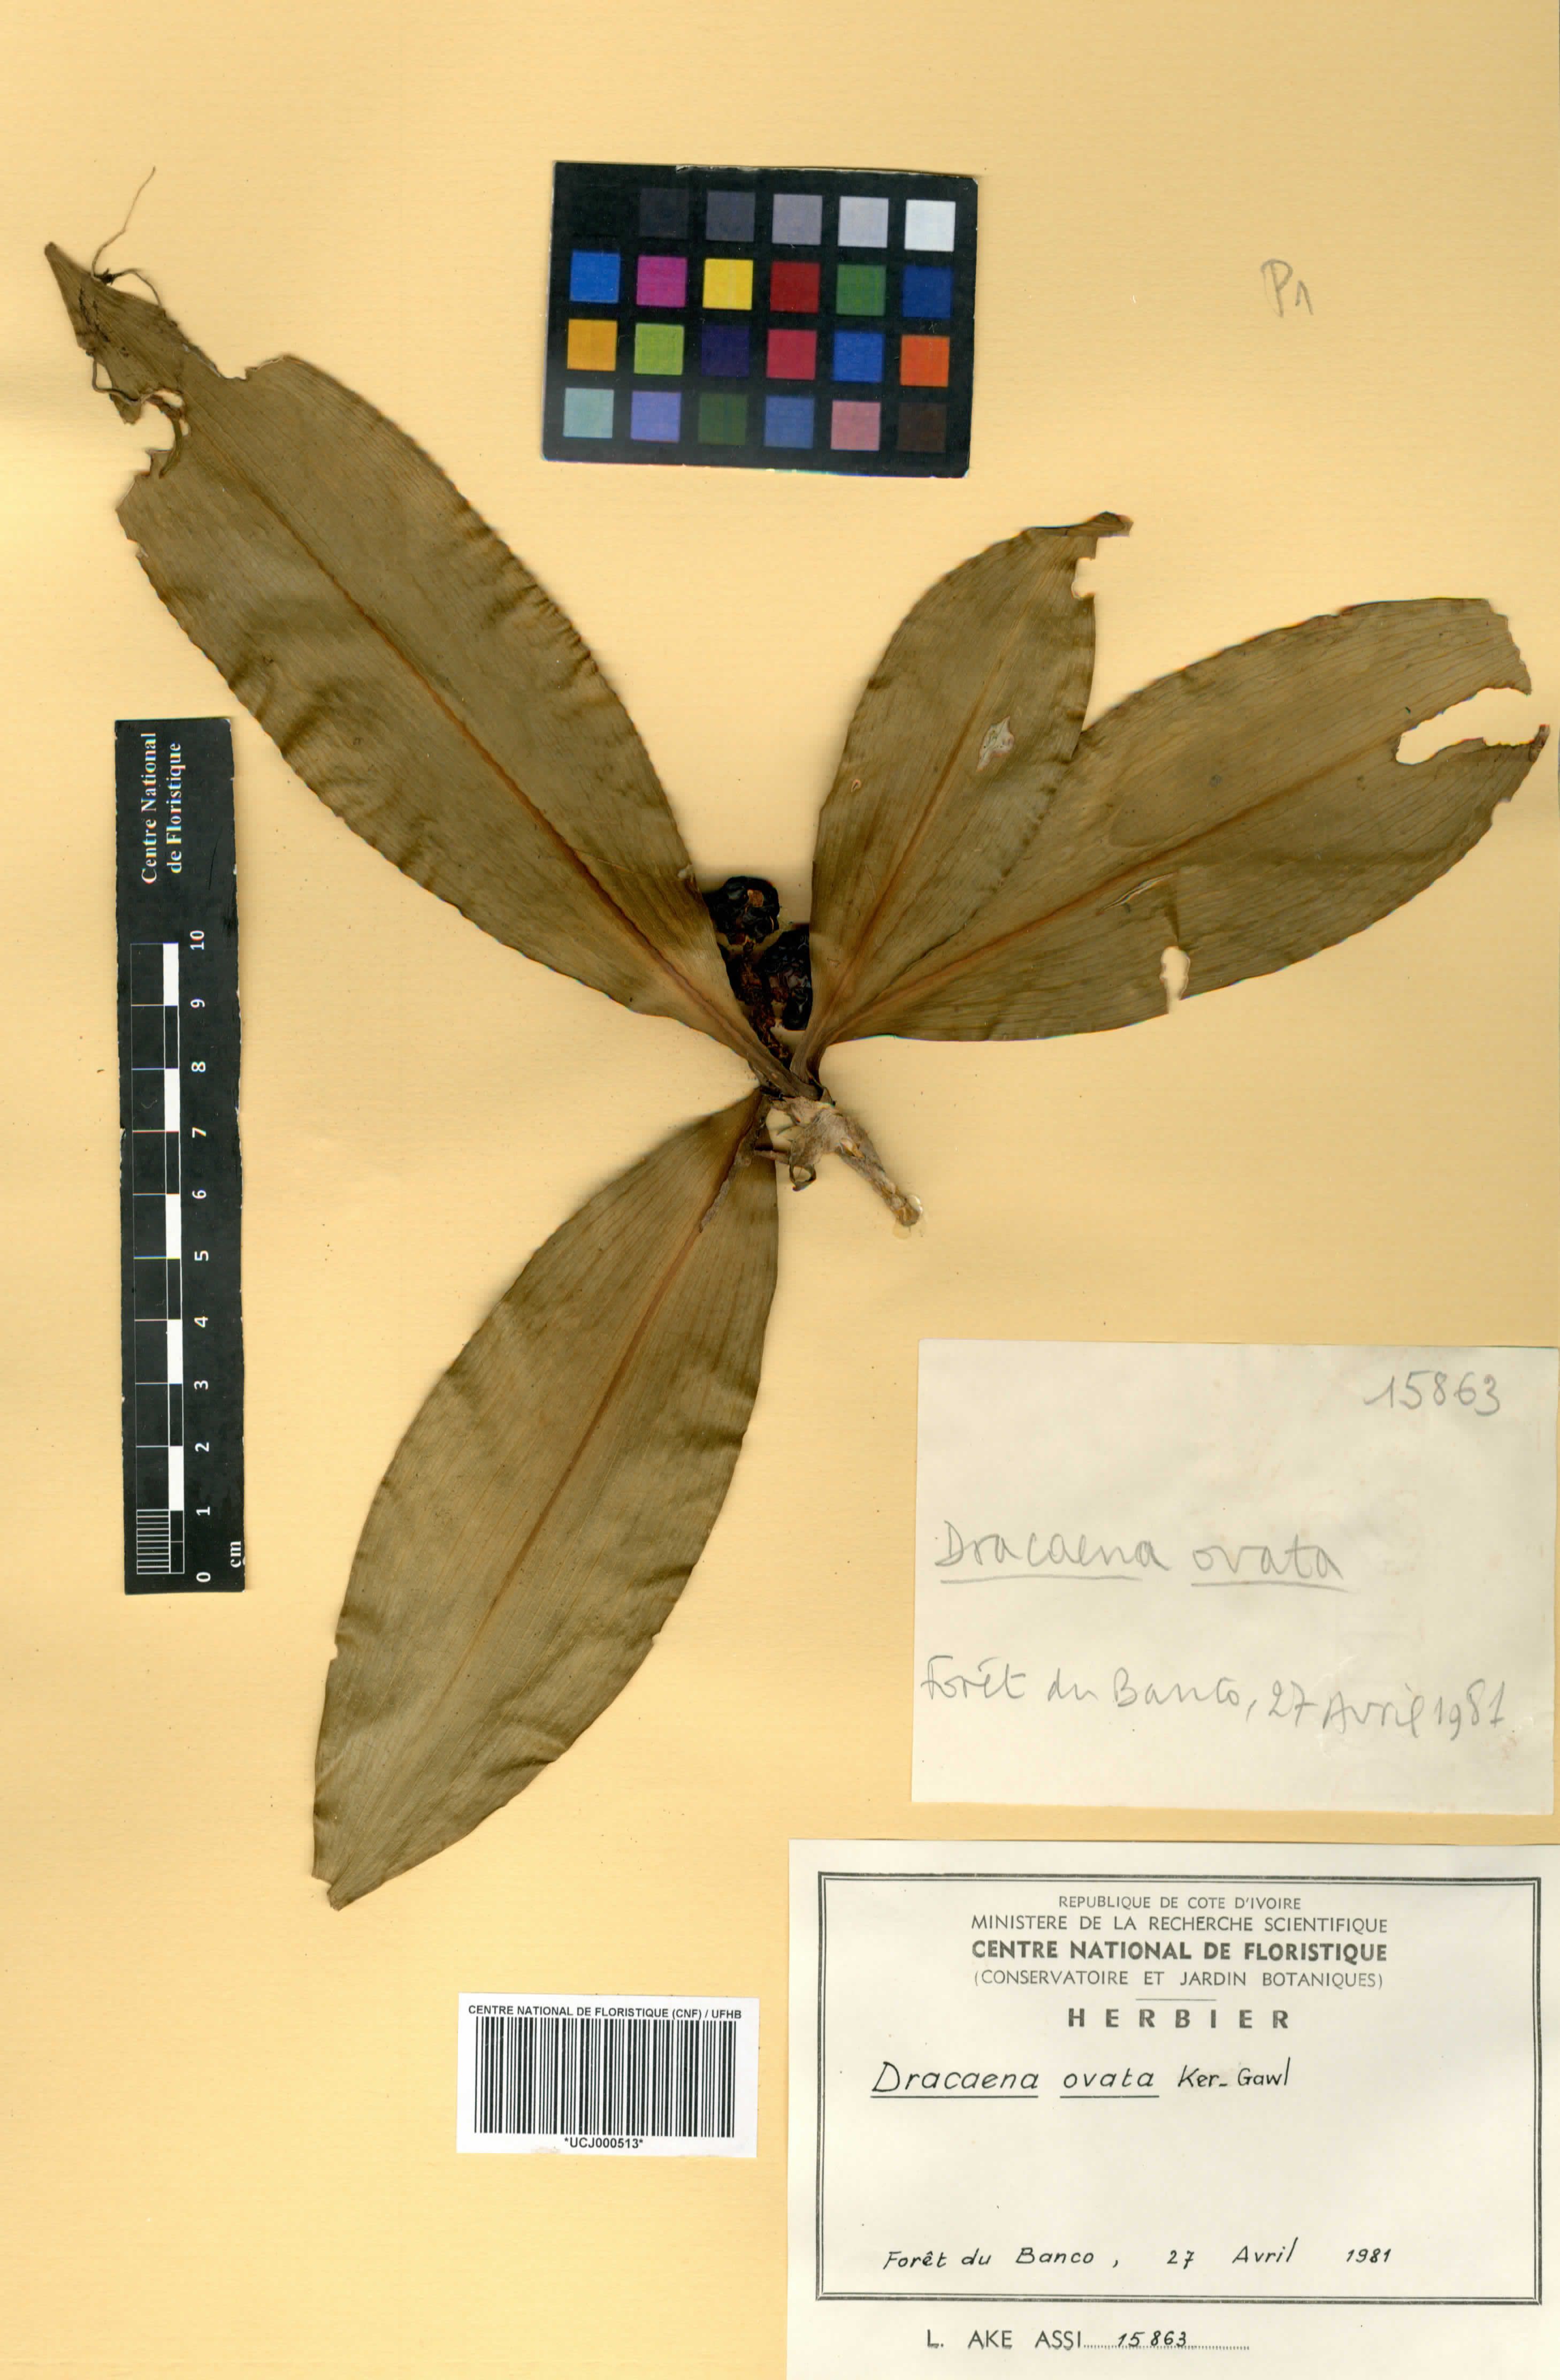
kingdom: Plantae
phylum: Tracheophyta
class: Liliopsida
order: Asparagales
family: Asparagaceae
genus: Dracaena
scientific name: Dracaena ovata
